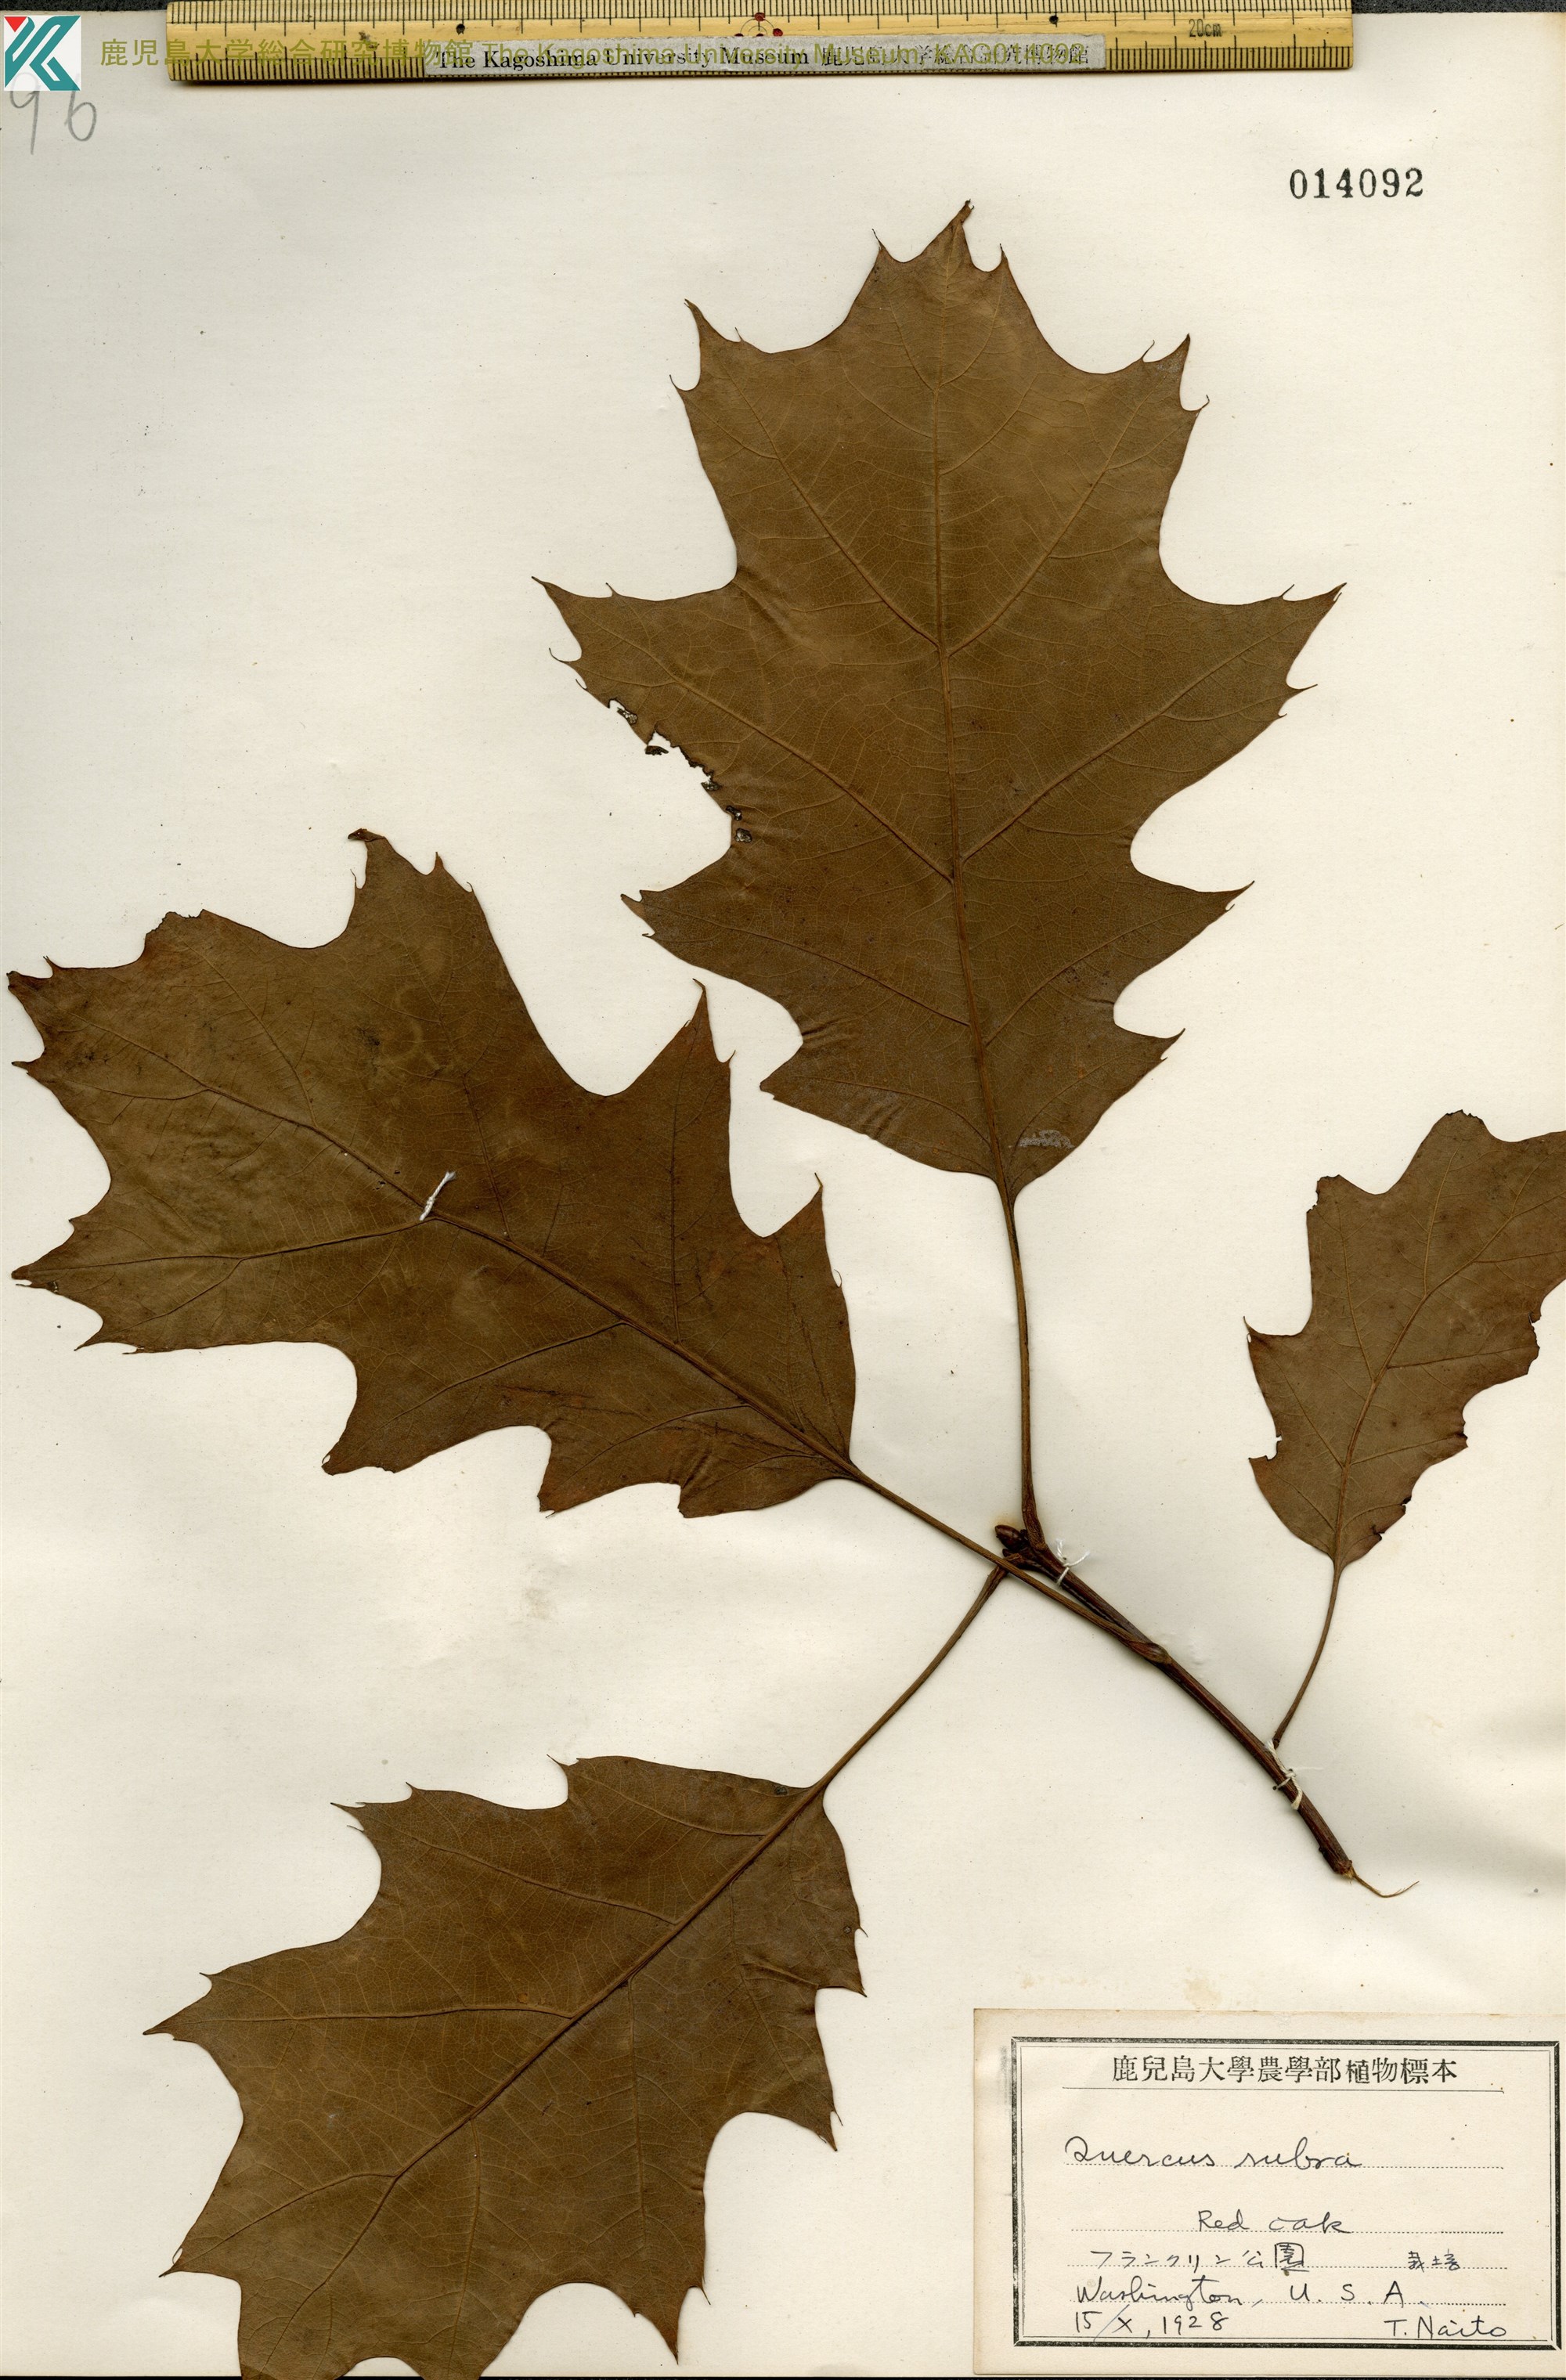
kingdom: Plantae
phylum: Tracheophyta
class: Magnoliopsida
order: Fagales
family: Fagaceae
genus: Quercus
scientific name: Quercus palustris
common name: Pin oak
